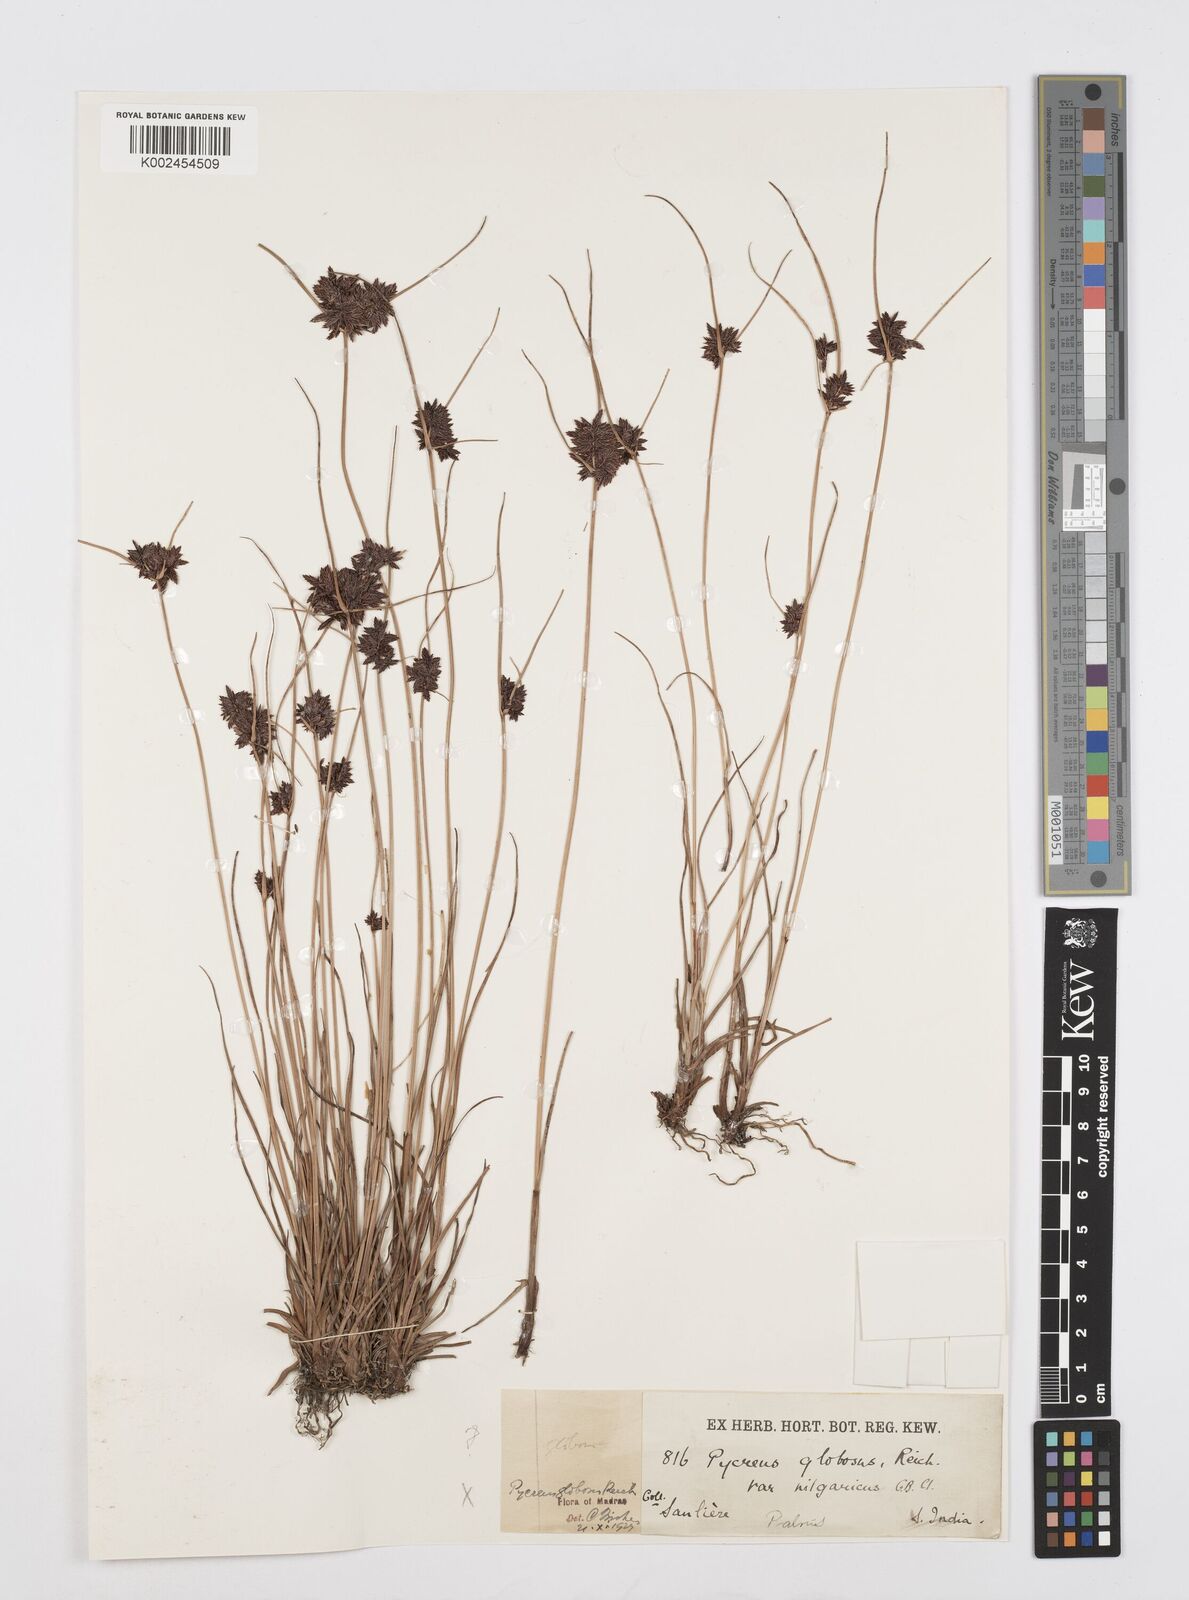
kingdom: Plantae
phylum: Tracheophyta
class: Liliopsida
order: Poales
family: Cyperaceae
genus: Cyperus
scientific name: Cyperus
